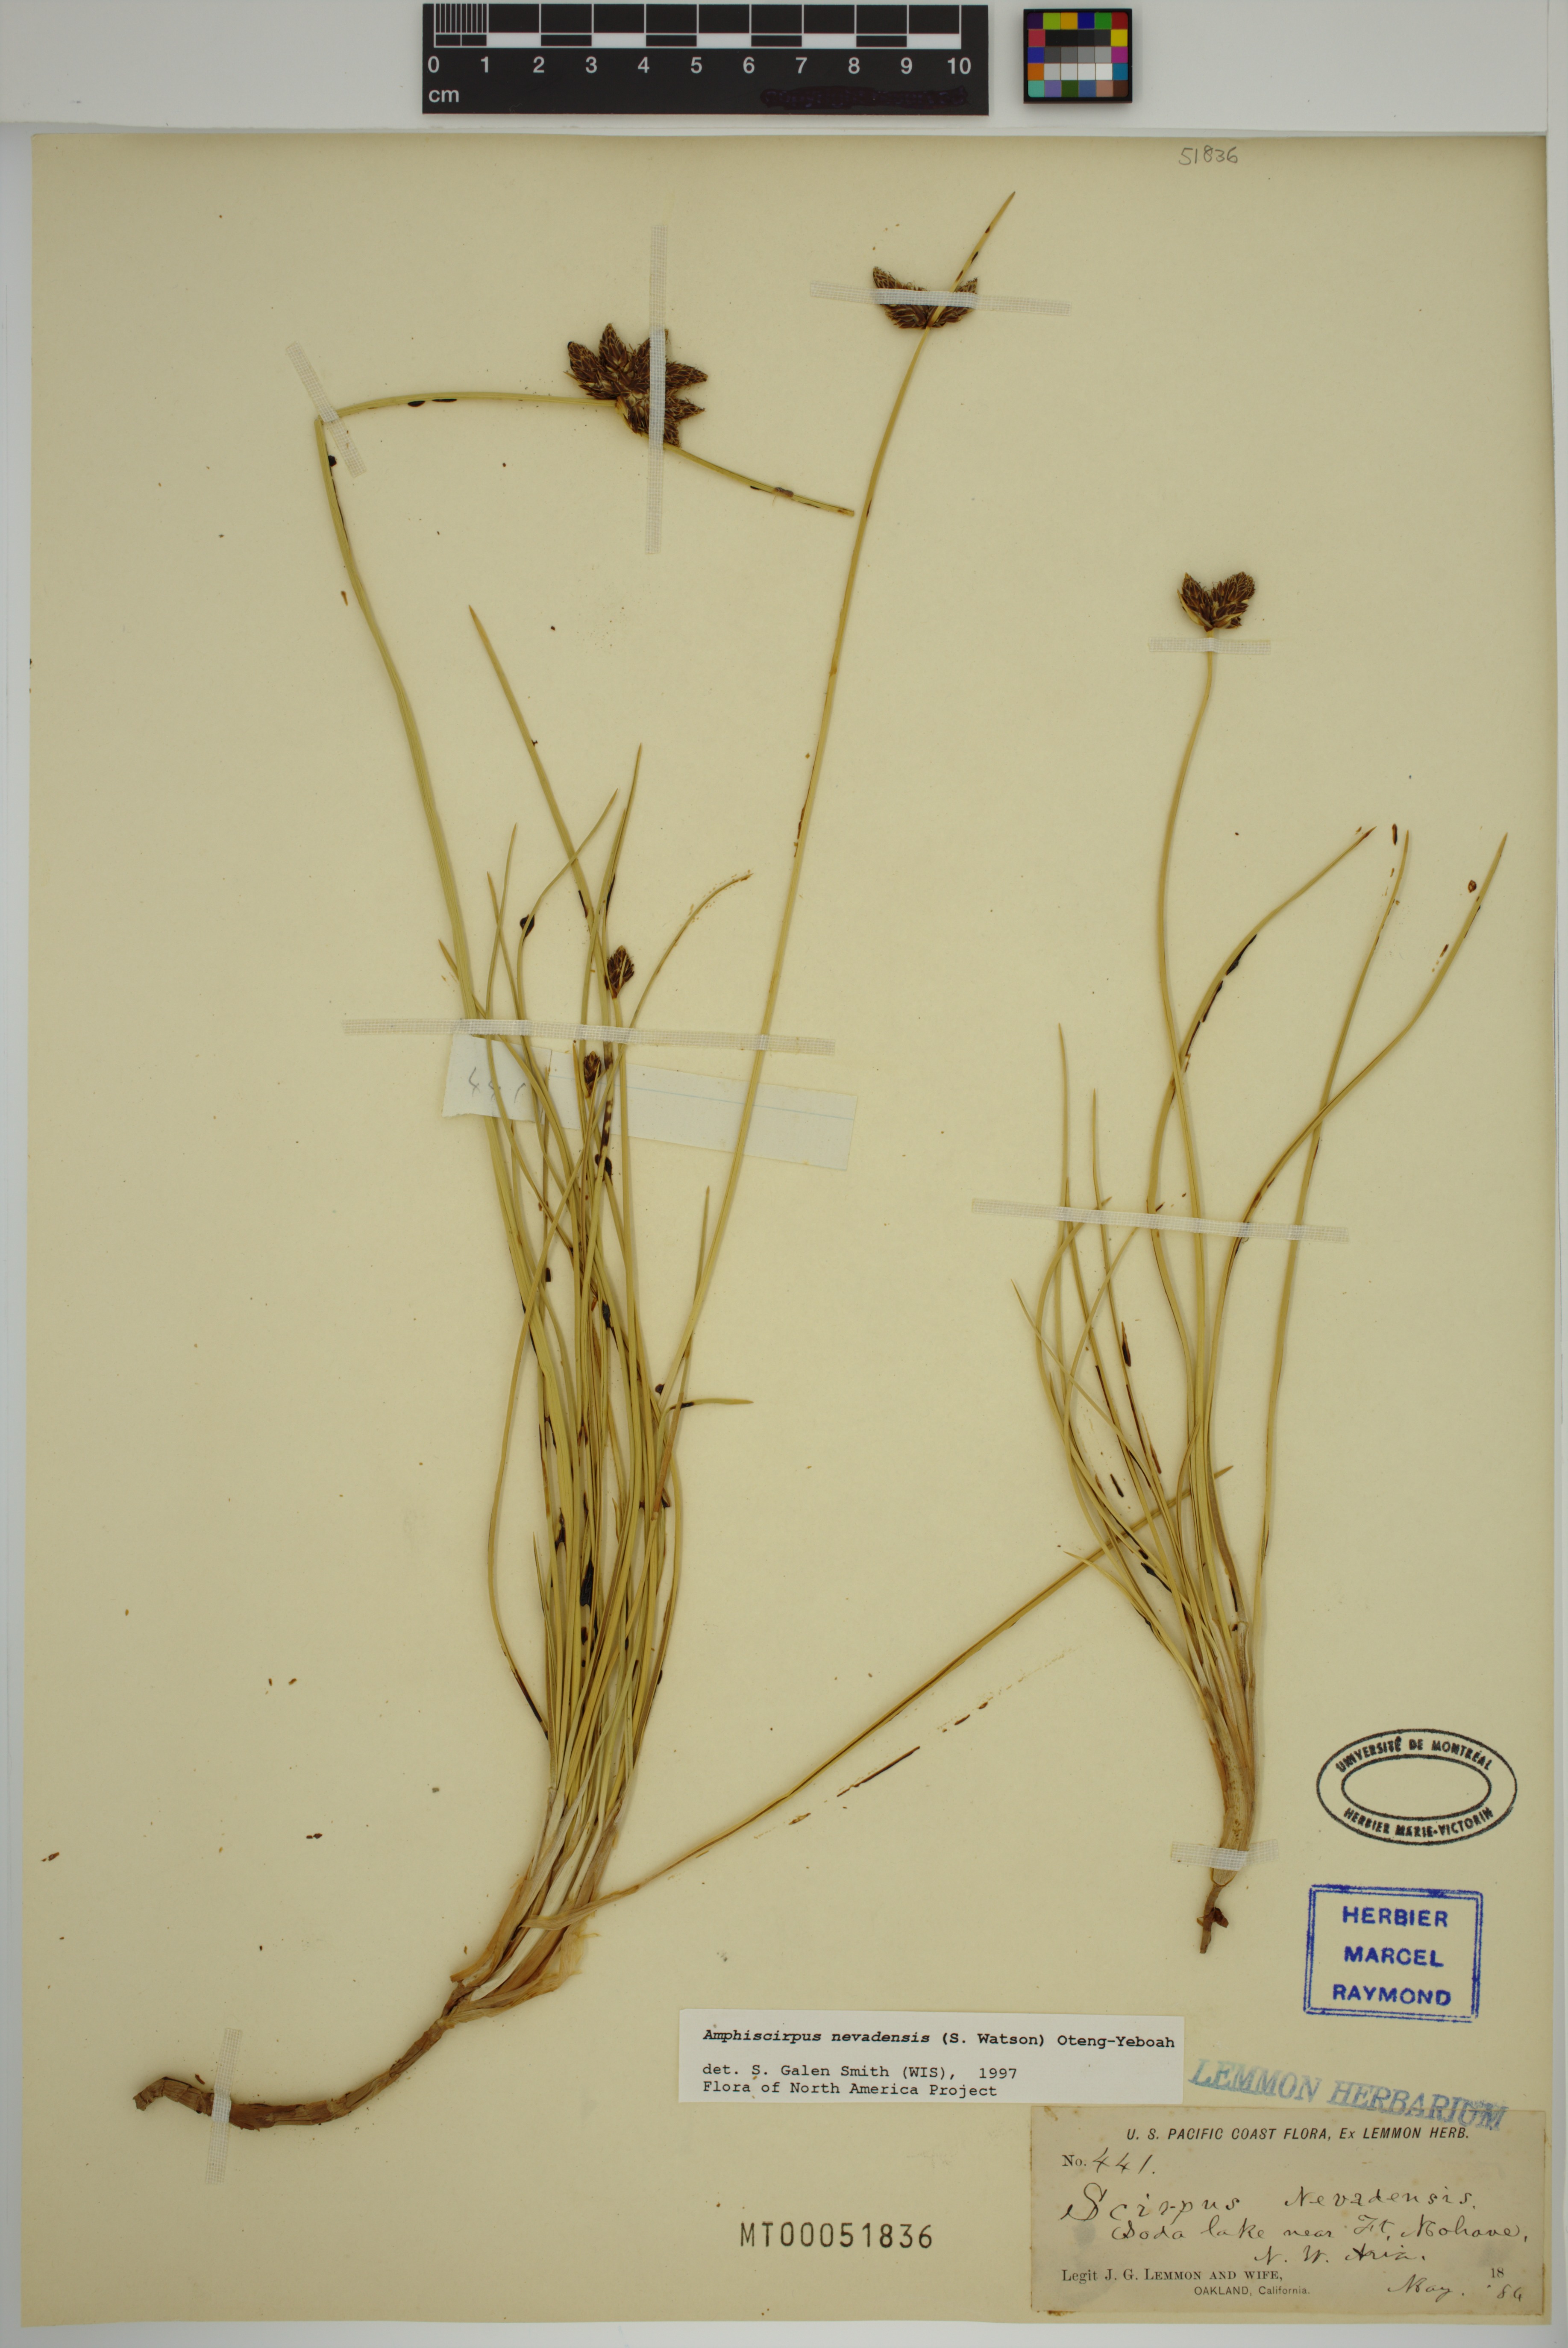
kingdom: Plantae
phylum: Tracheophyta
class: Liliopsida
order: Poales
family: Cyperaceae
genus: Amphiscirpus
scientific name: Amphiscirpus nevadensis
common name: Nevada bulrush
